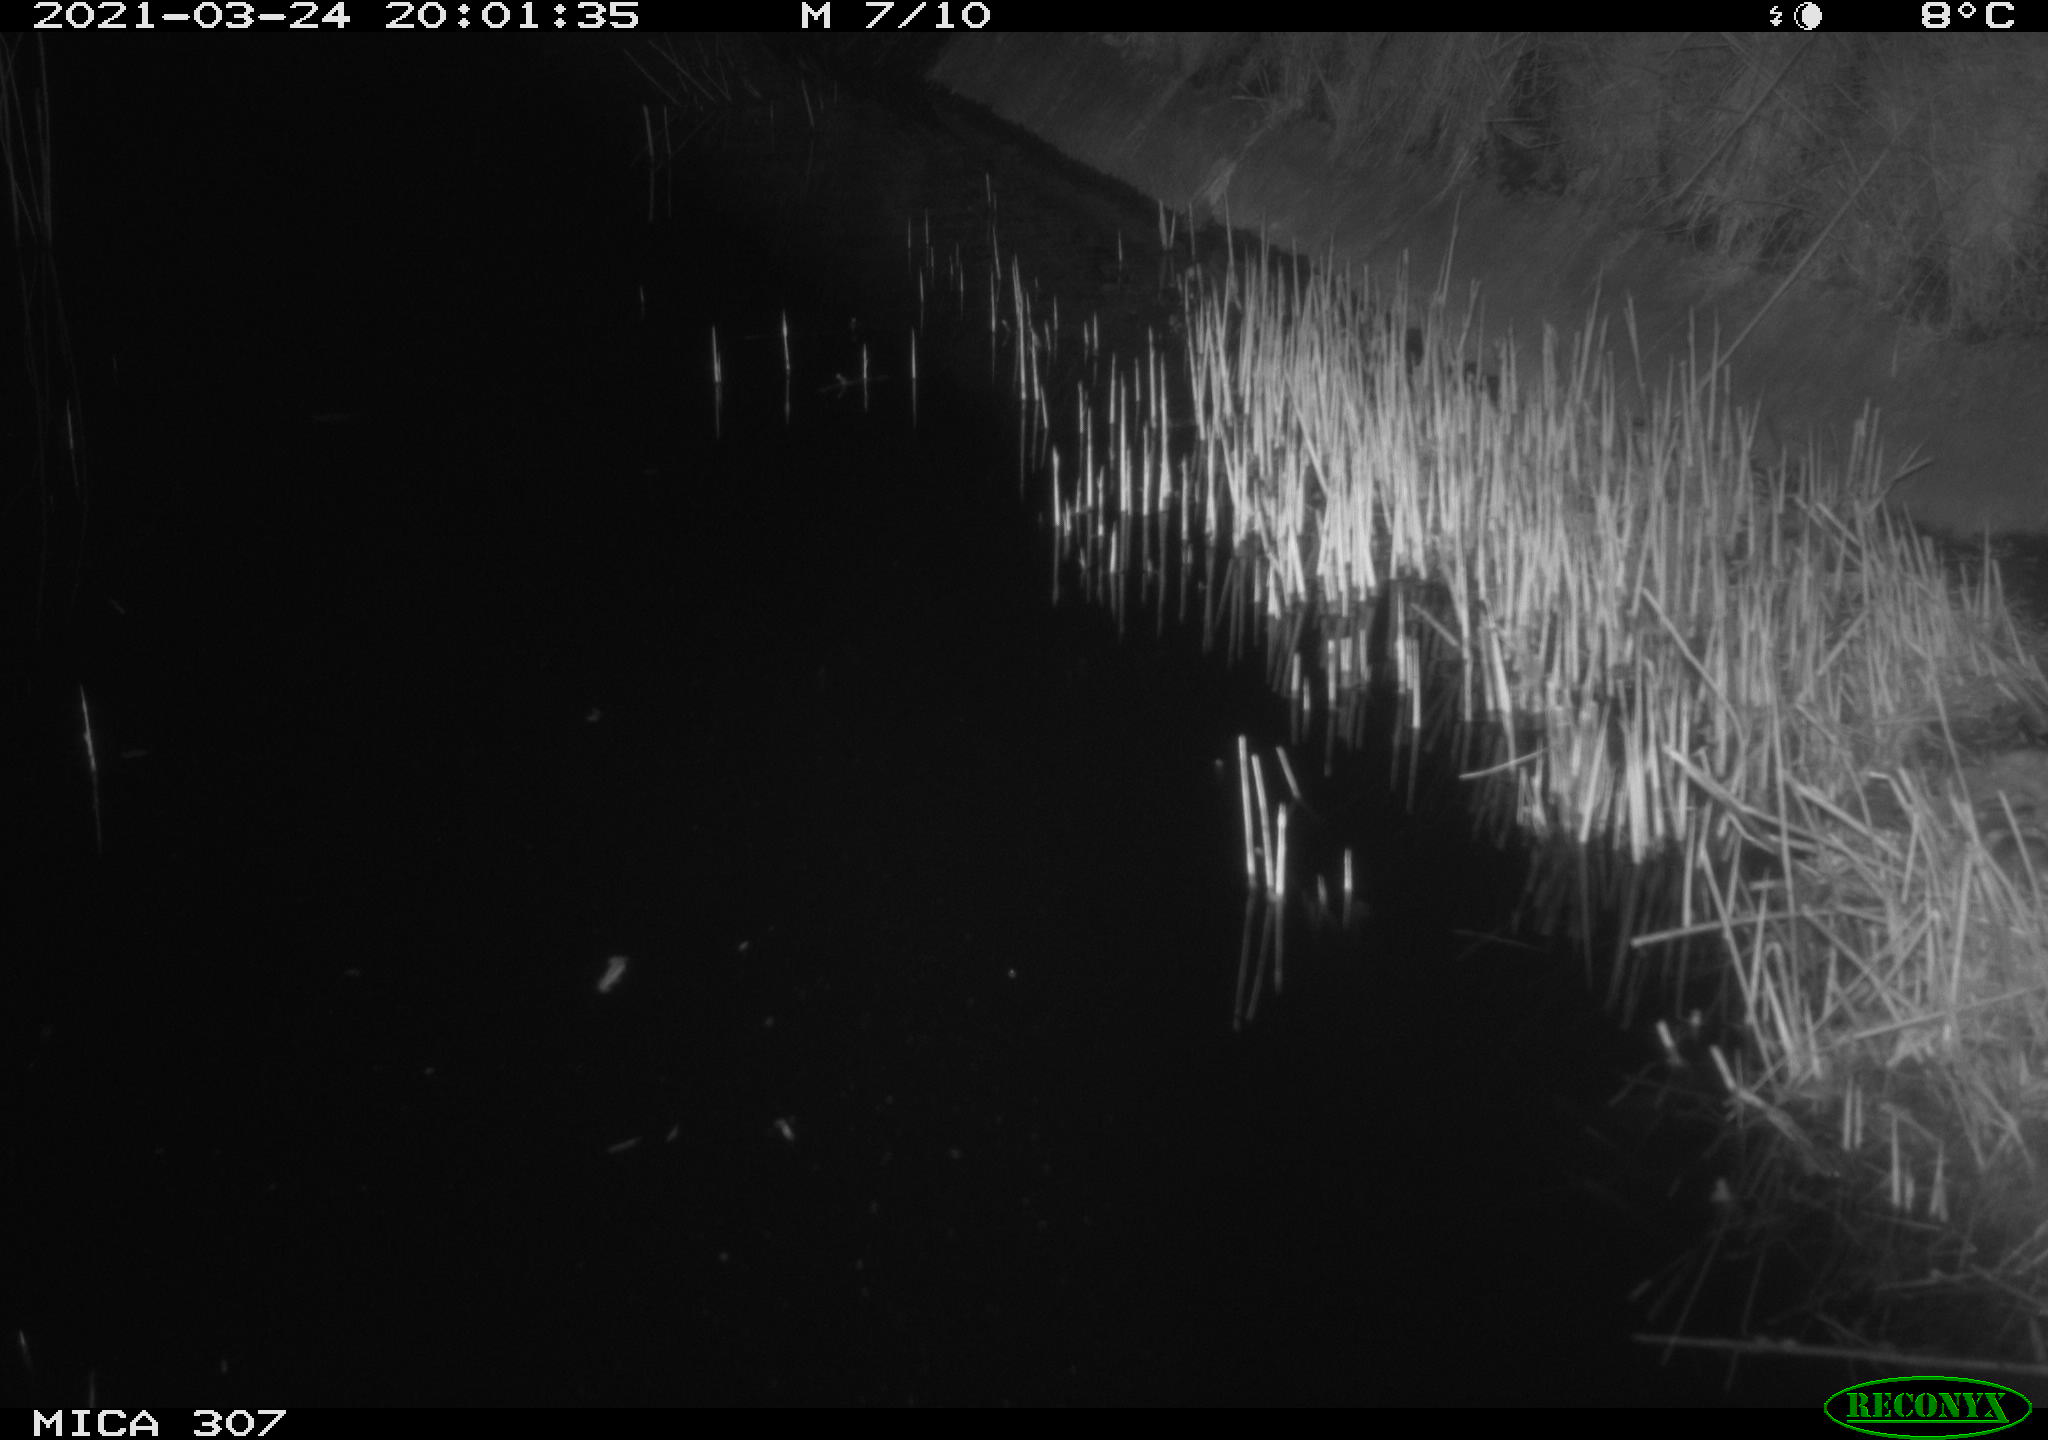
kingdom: Animalia
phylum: Chordata
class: Mammalia
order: Rodentia
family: Muridae
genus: Rattus
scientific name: Rattus norvegicus
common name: Brown rat
